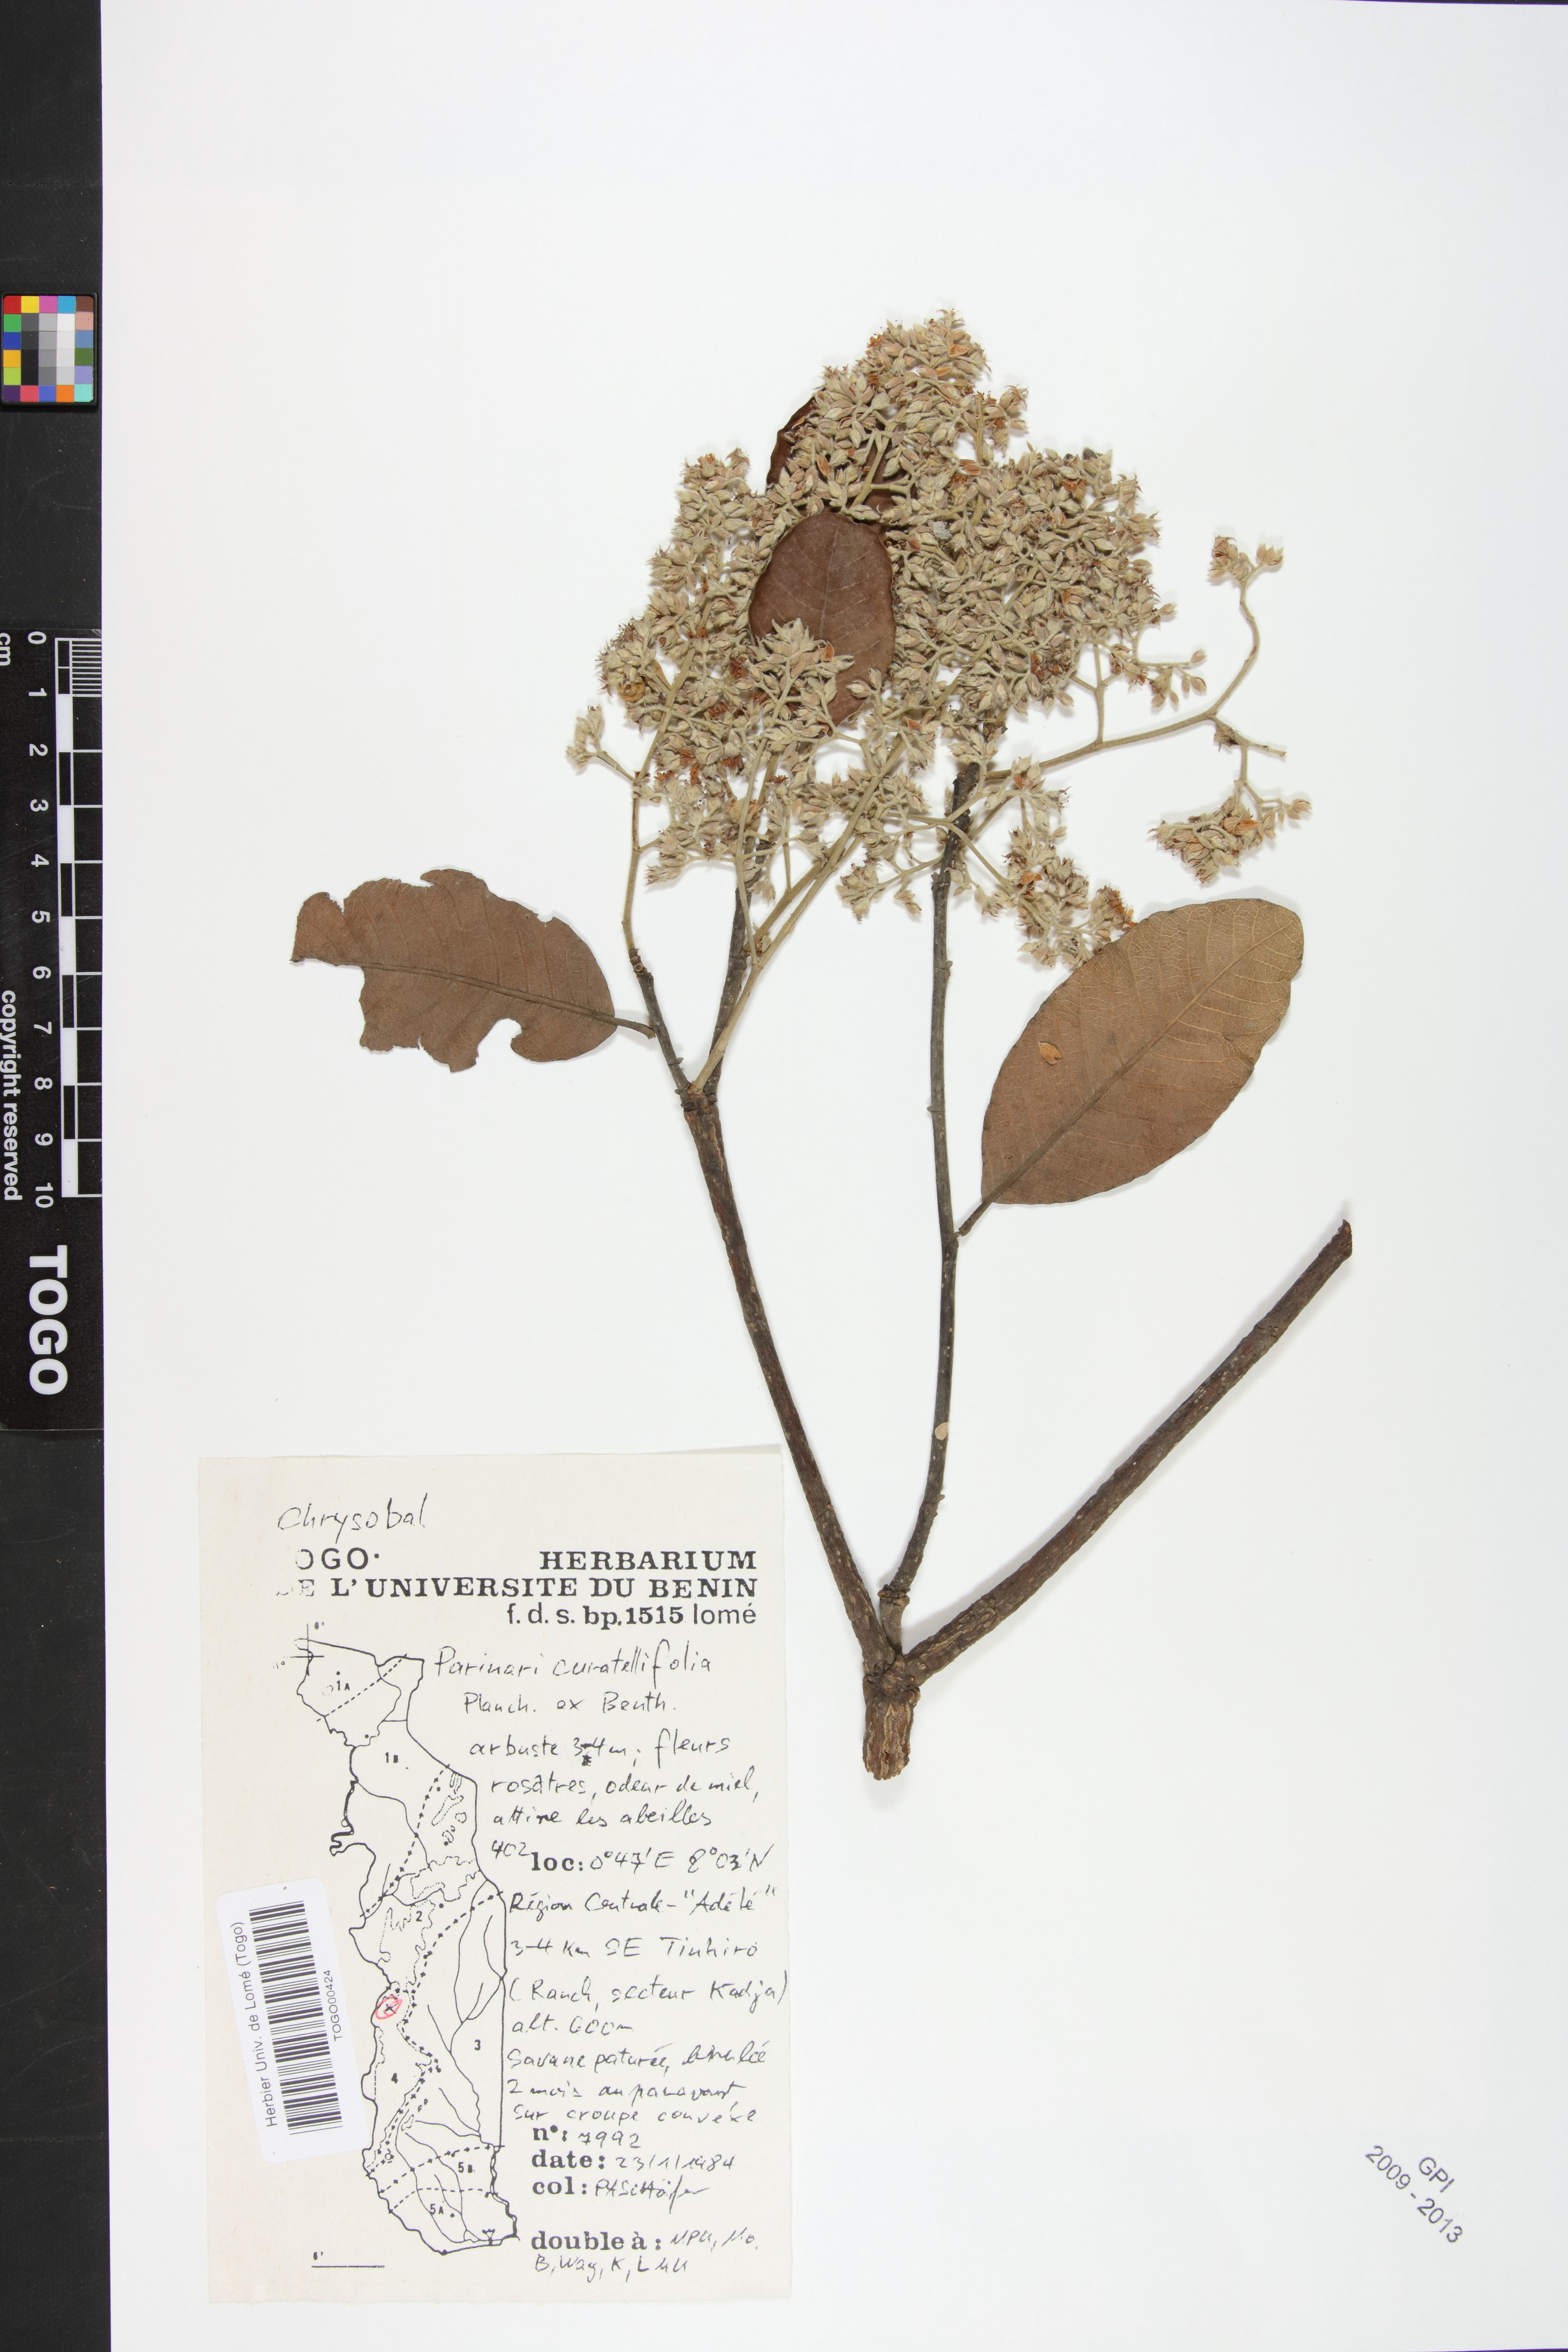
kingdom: Plantae
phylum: Tracheophyta
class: Magnoliopsida
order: Malpighiales
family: Chrysobalanaceae
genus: Parinari
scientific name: Parinari curatellifolia
